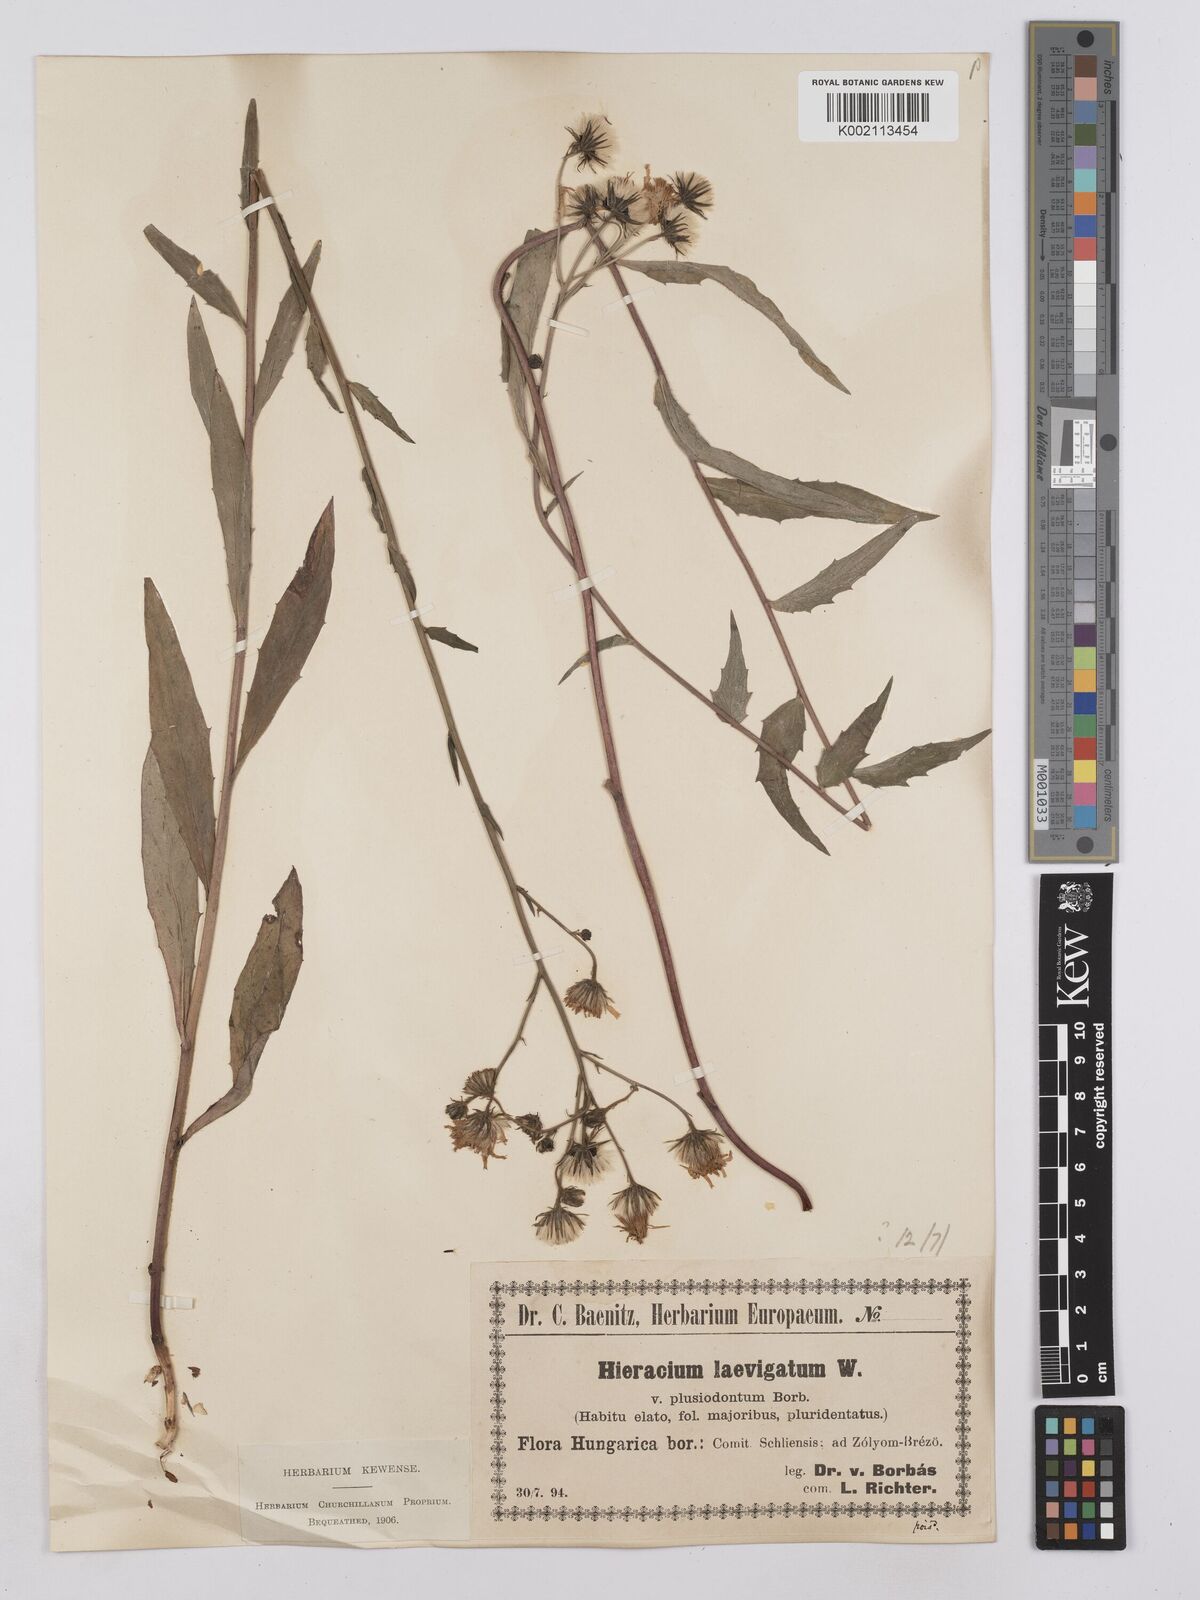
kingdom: Plantae
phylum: Tracheophyta
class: Magnoliopsida
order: Asterales
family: Asteraceae
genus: Hieracium
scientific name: Hieracium calcareum
